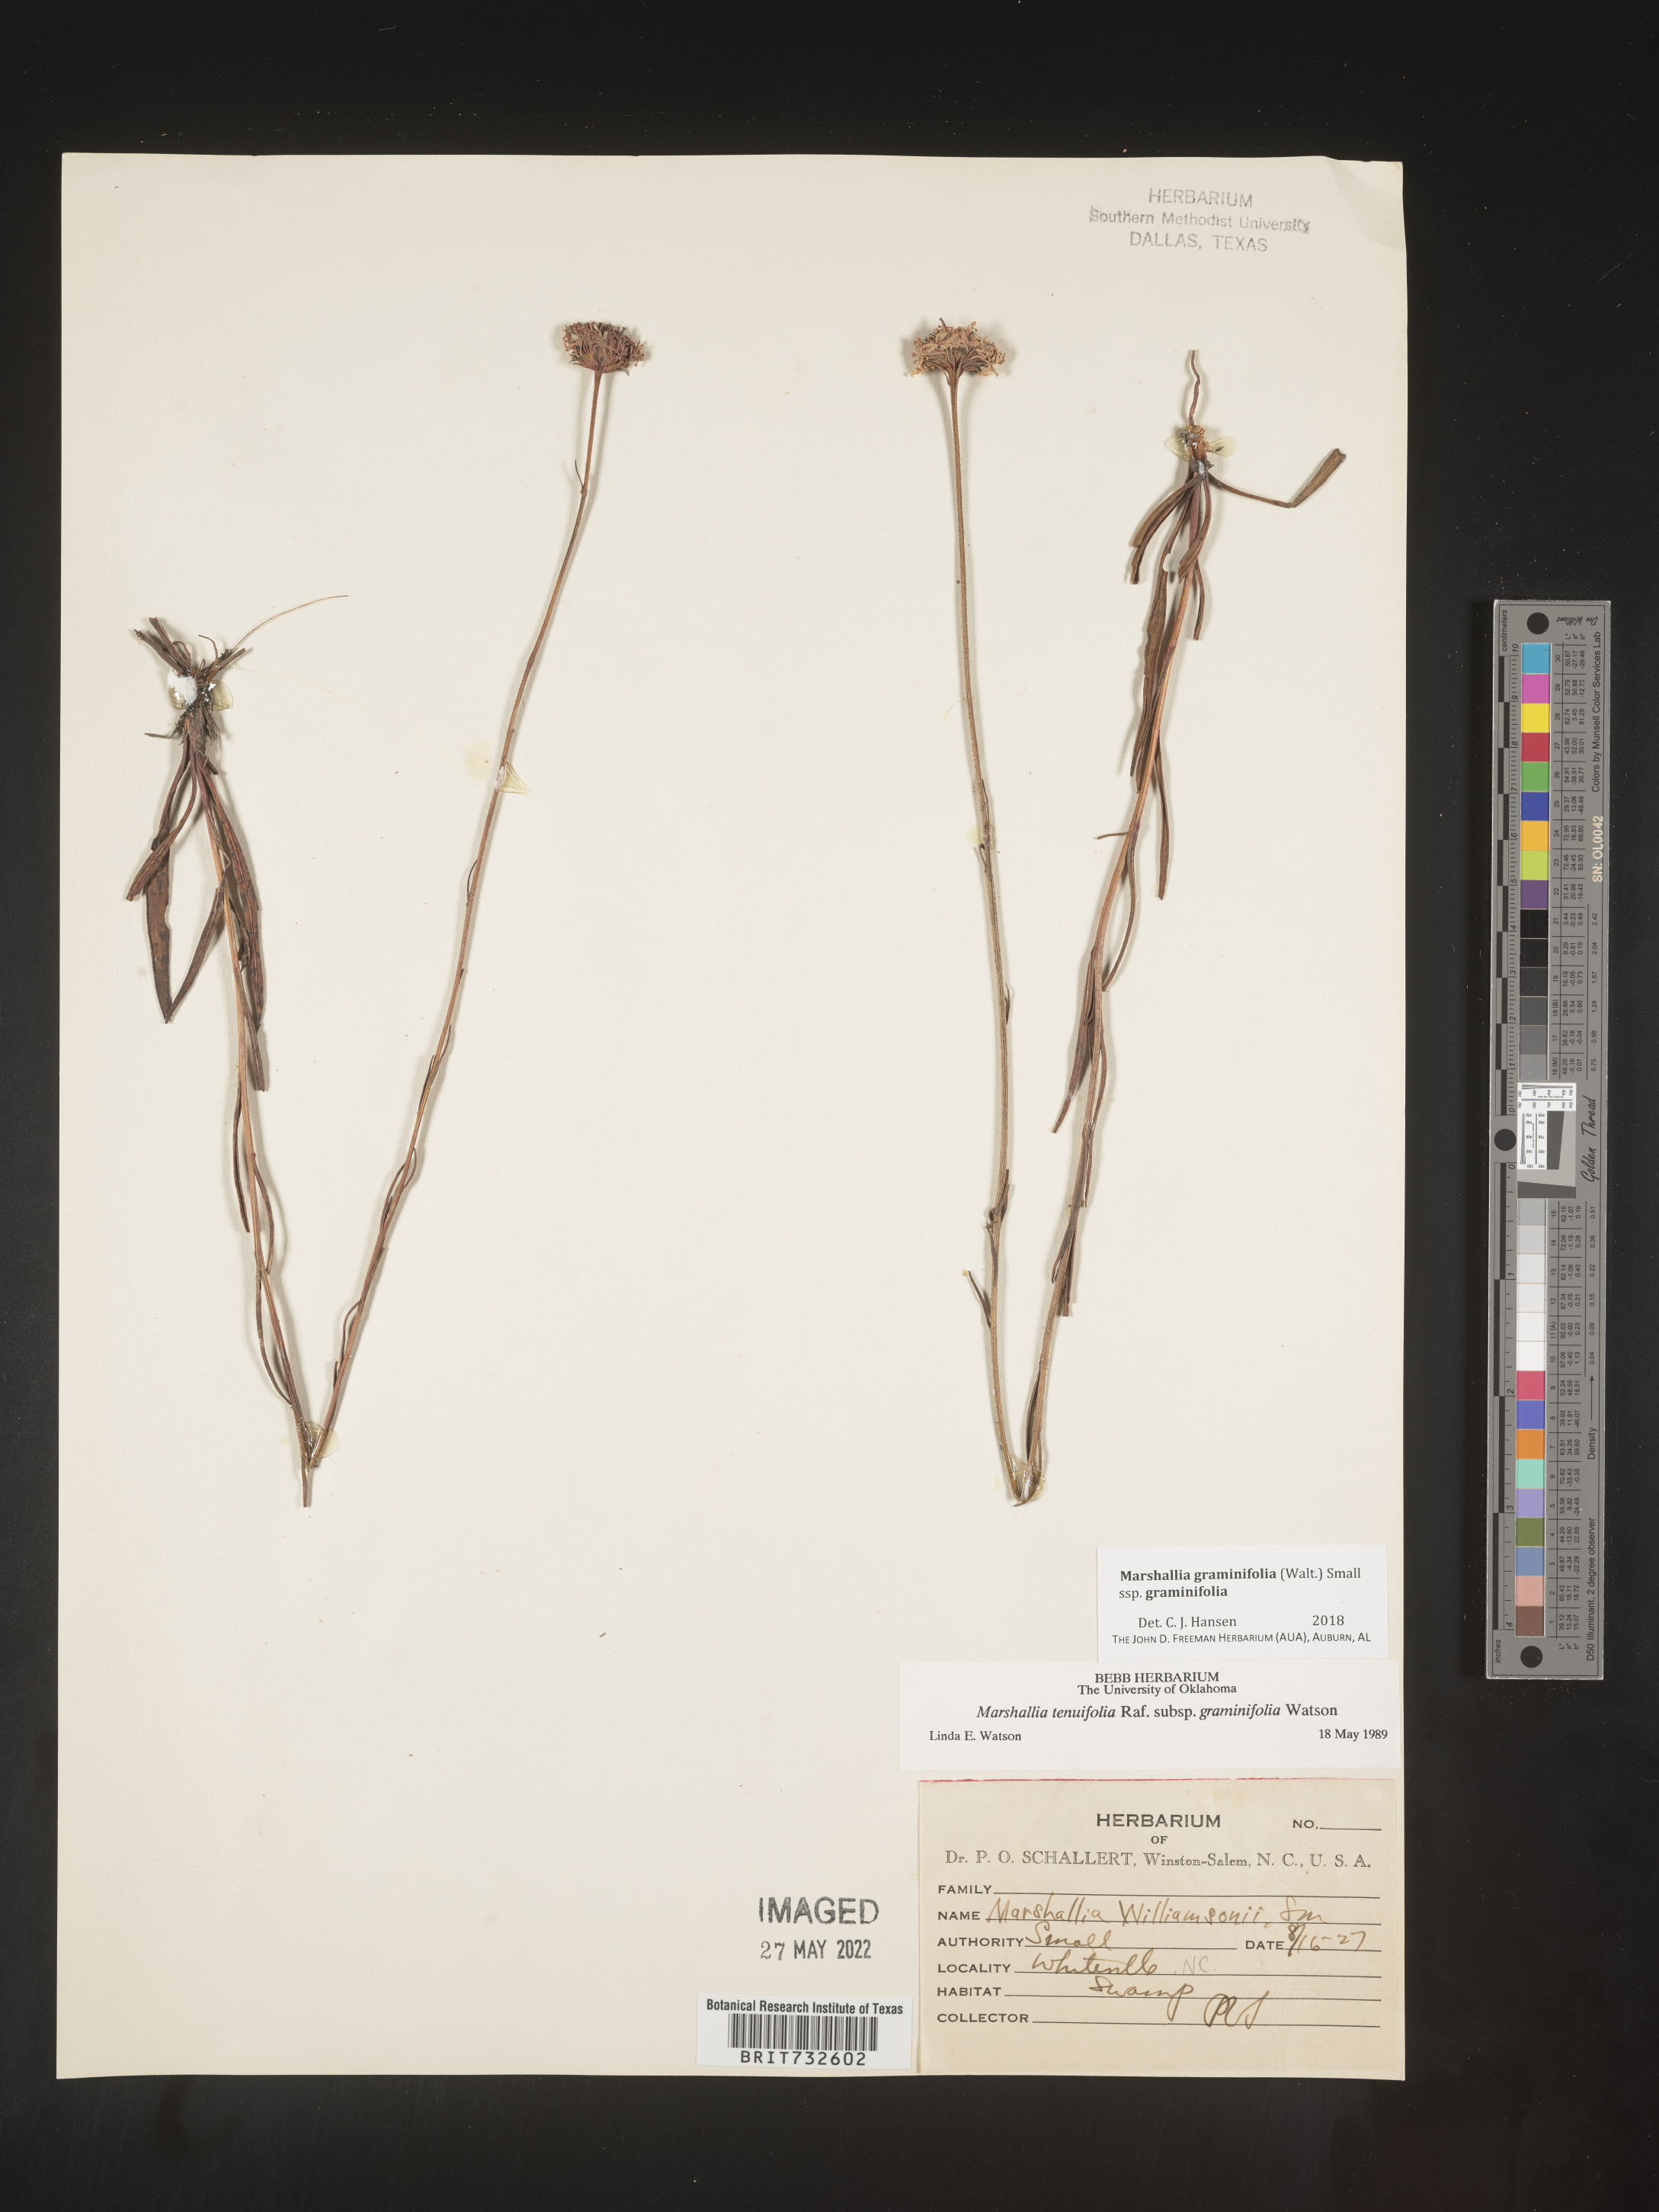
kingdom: Plantae
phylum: Tracheophyta
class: Magnoliopsida
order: Asterales
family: Asteraceae
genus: Marshallia
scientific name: Marshallia graminifolia
